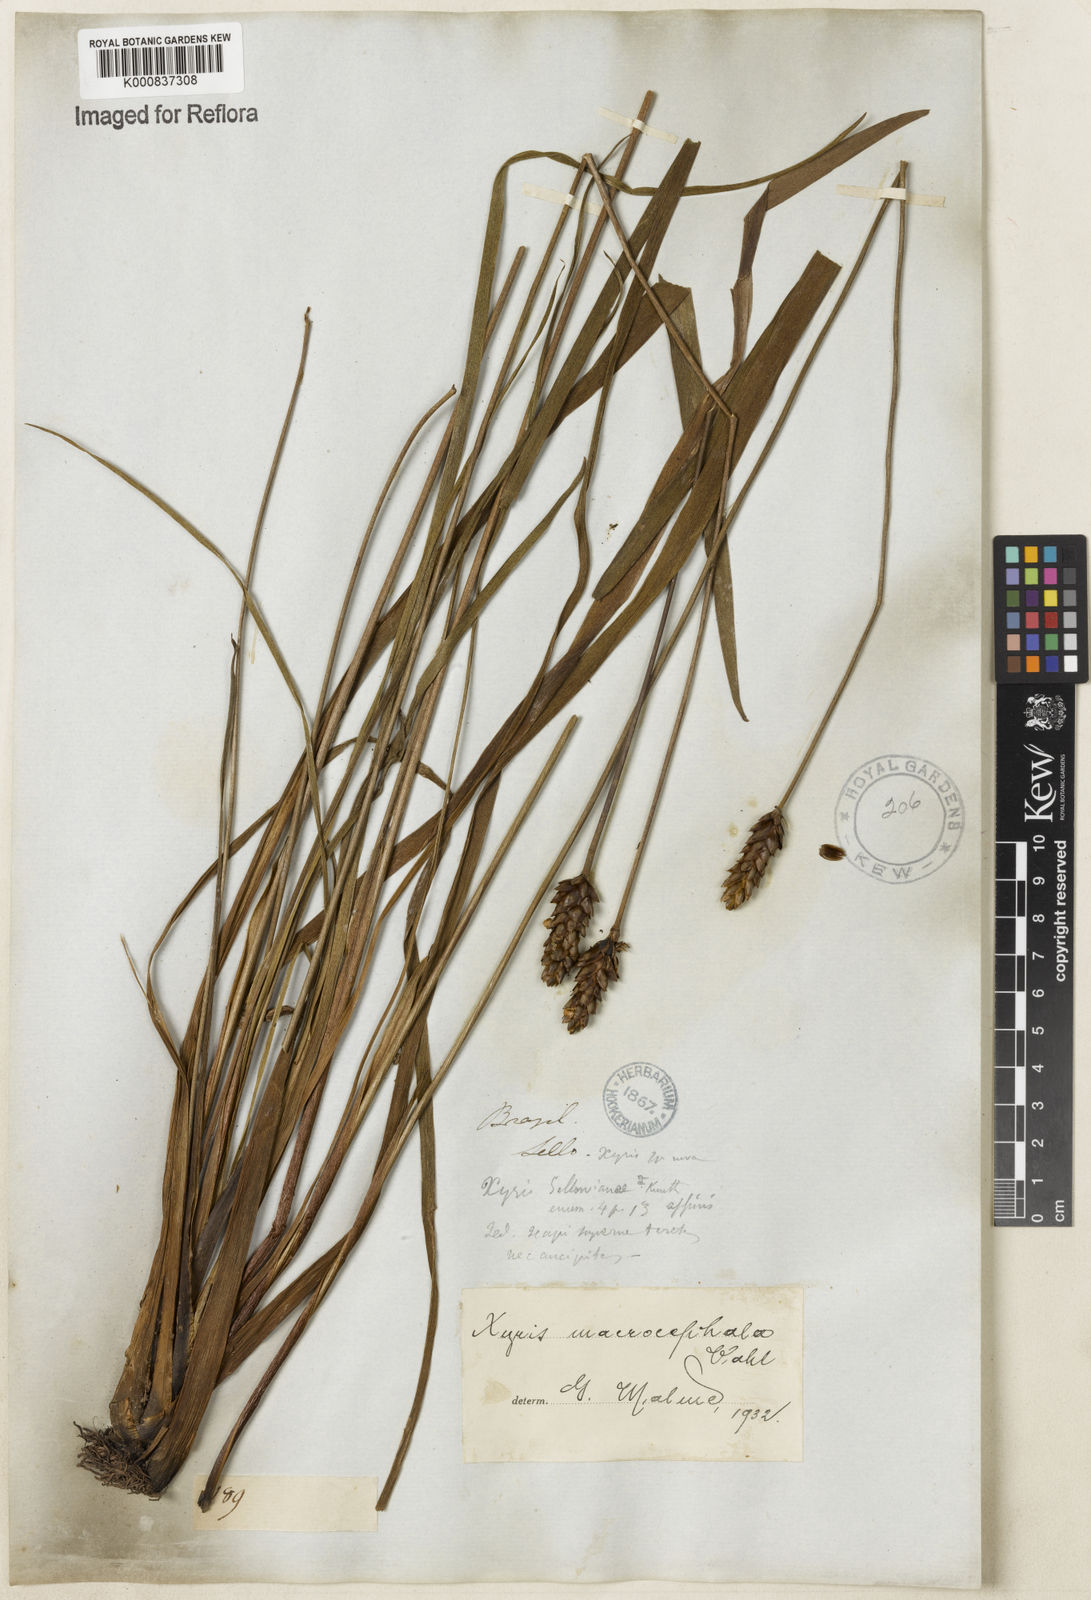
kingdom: Plantae
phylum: Tracheophyta
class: Liliopsida
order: Poales
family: Xyridaceae
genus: Xyris
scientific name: Xyris jupicai
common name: Richard's yelloweyed grass
